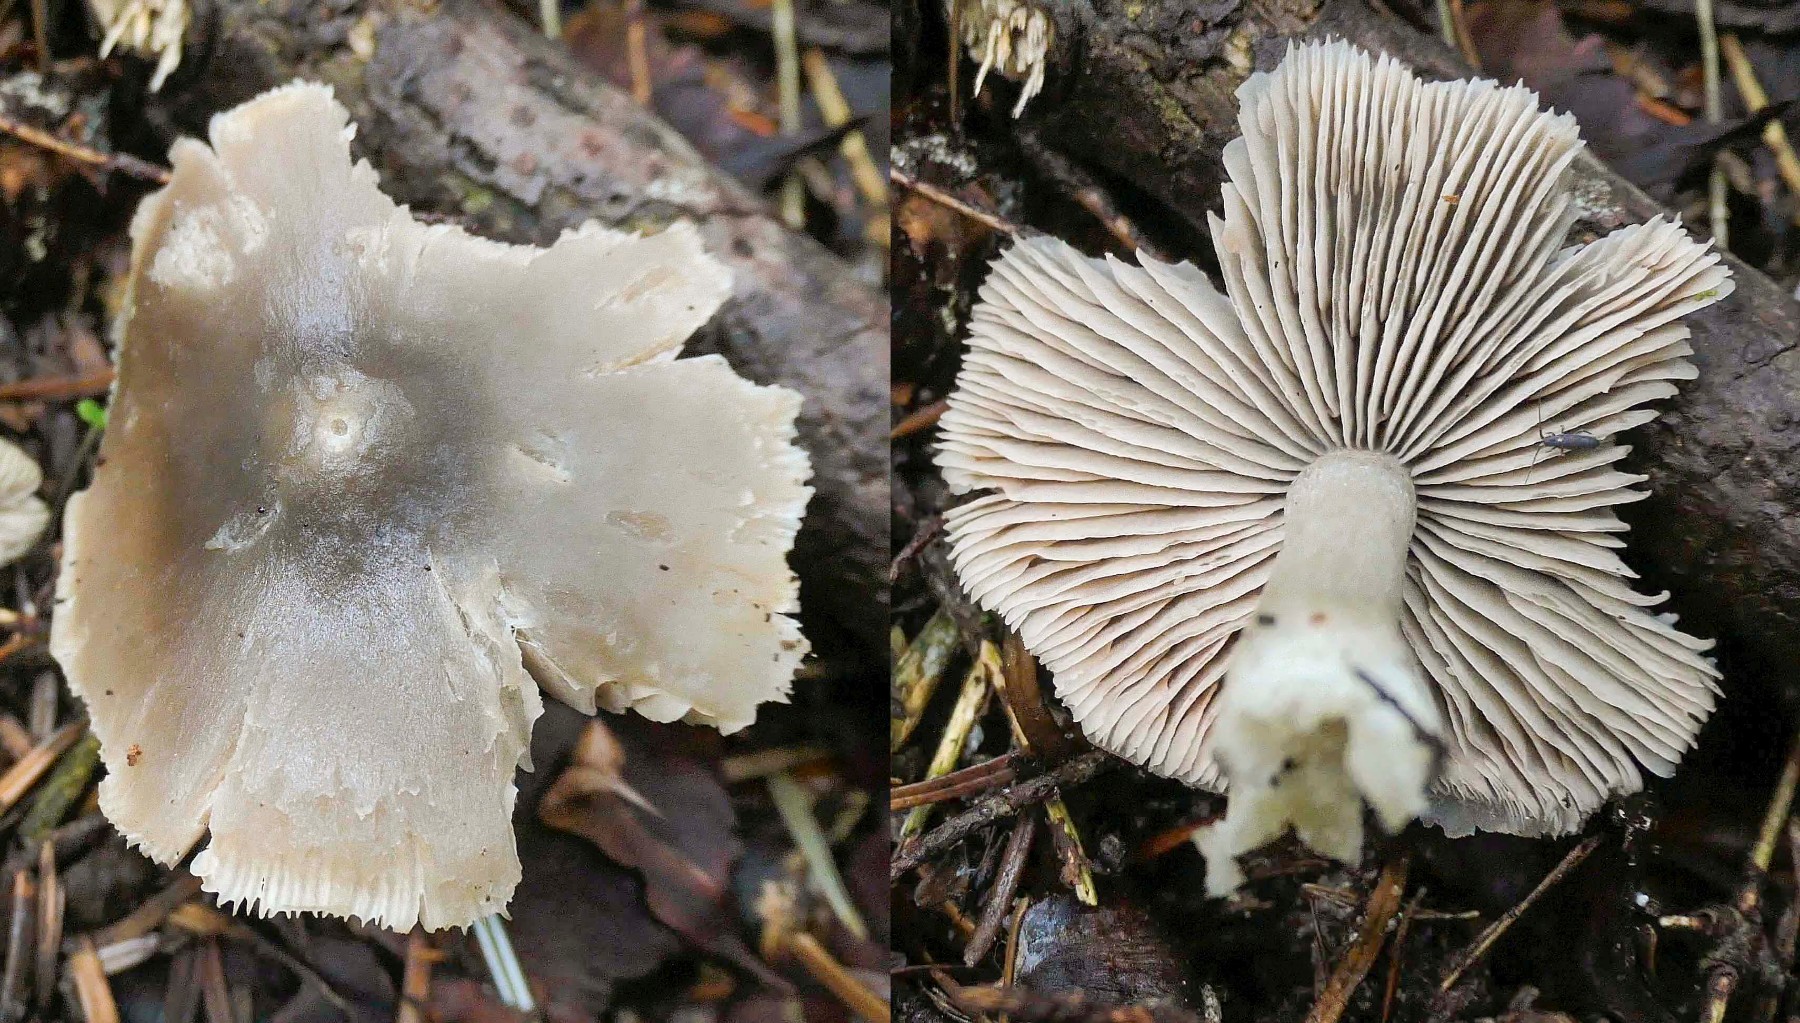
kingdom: Fungi
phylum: Basidiomycota
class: Agaricomycetes
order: Agaricales
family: Entolomataceae
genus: Entocybe
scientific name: Entocybe turbida
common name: plantage-rødblad
